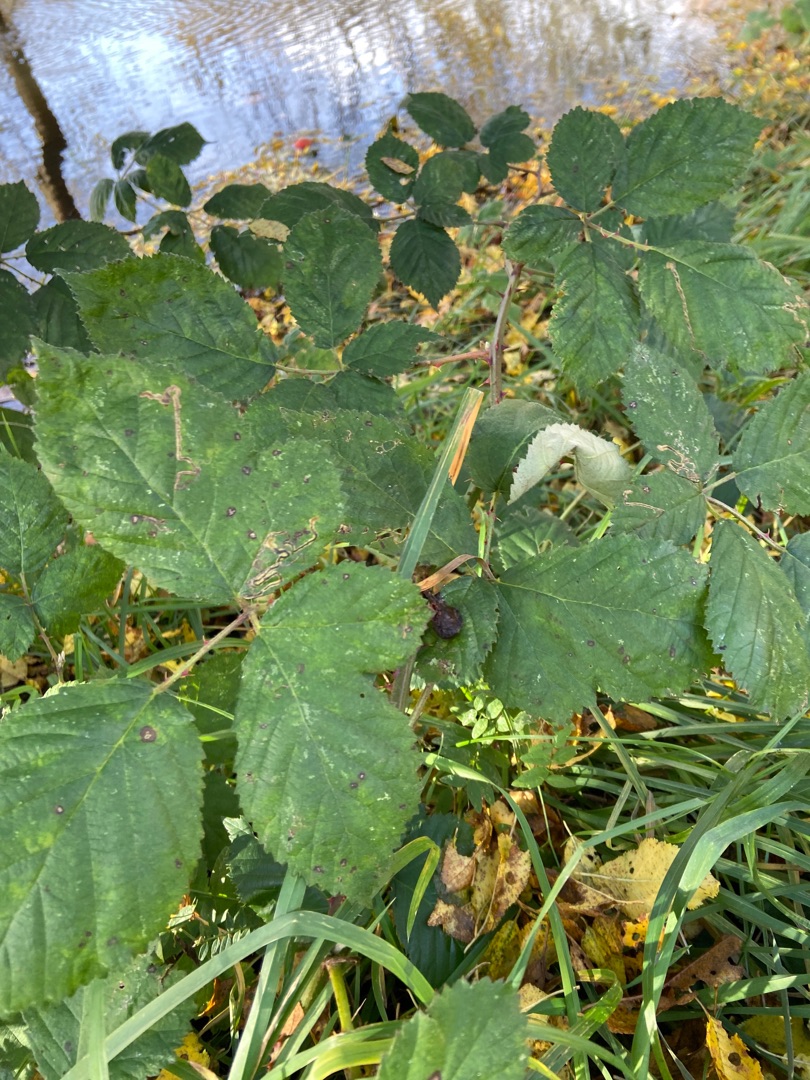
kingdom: Plantae
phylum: Tracheophyta
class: Magnoliopsida
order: Rosales
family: Rosaceae
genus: Rubus
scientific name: Rubus armeniacus
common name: Armensk brombær
